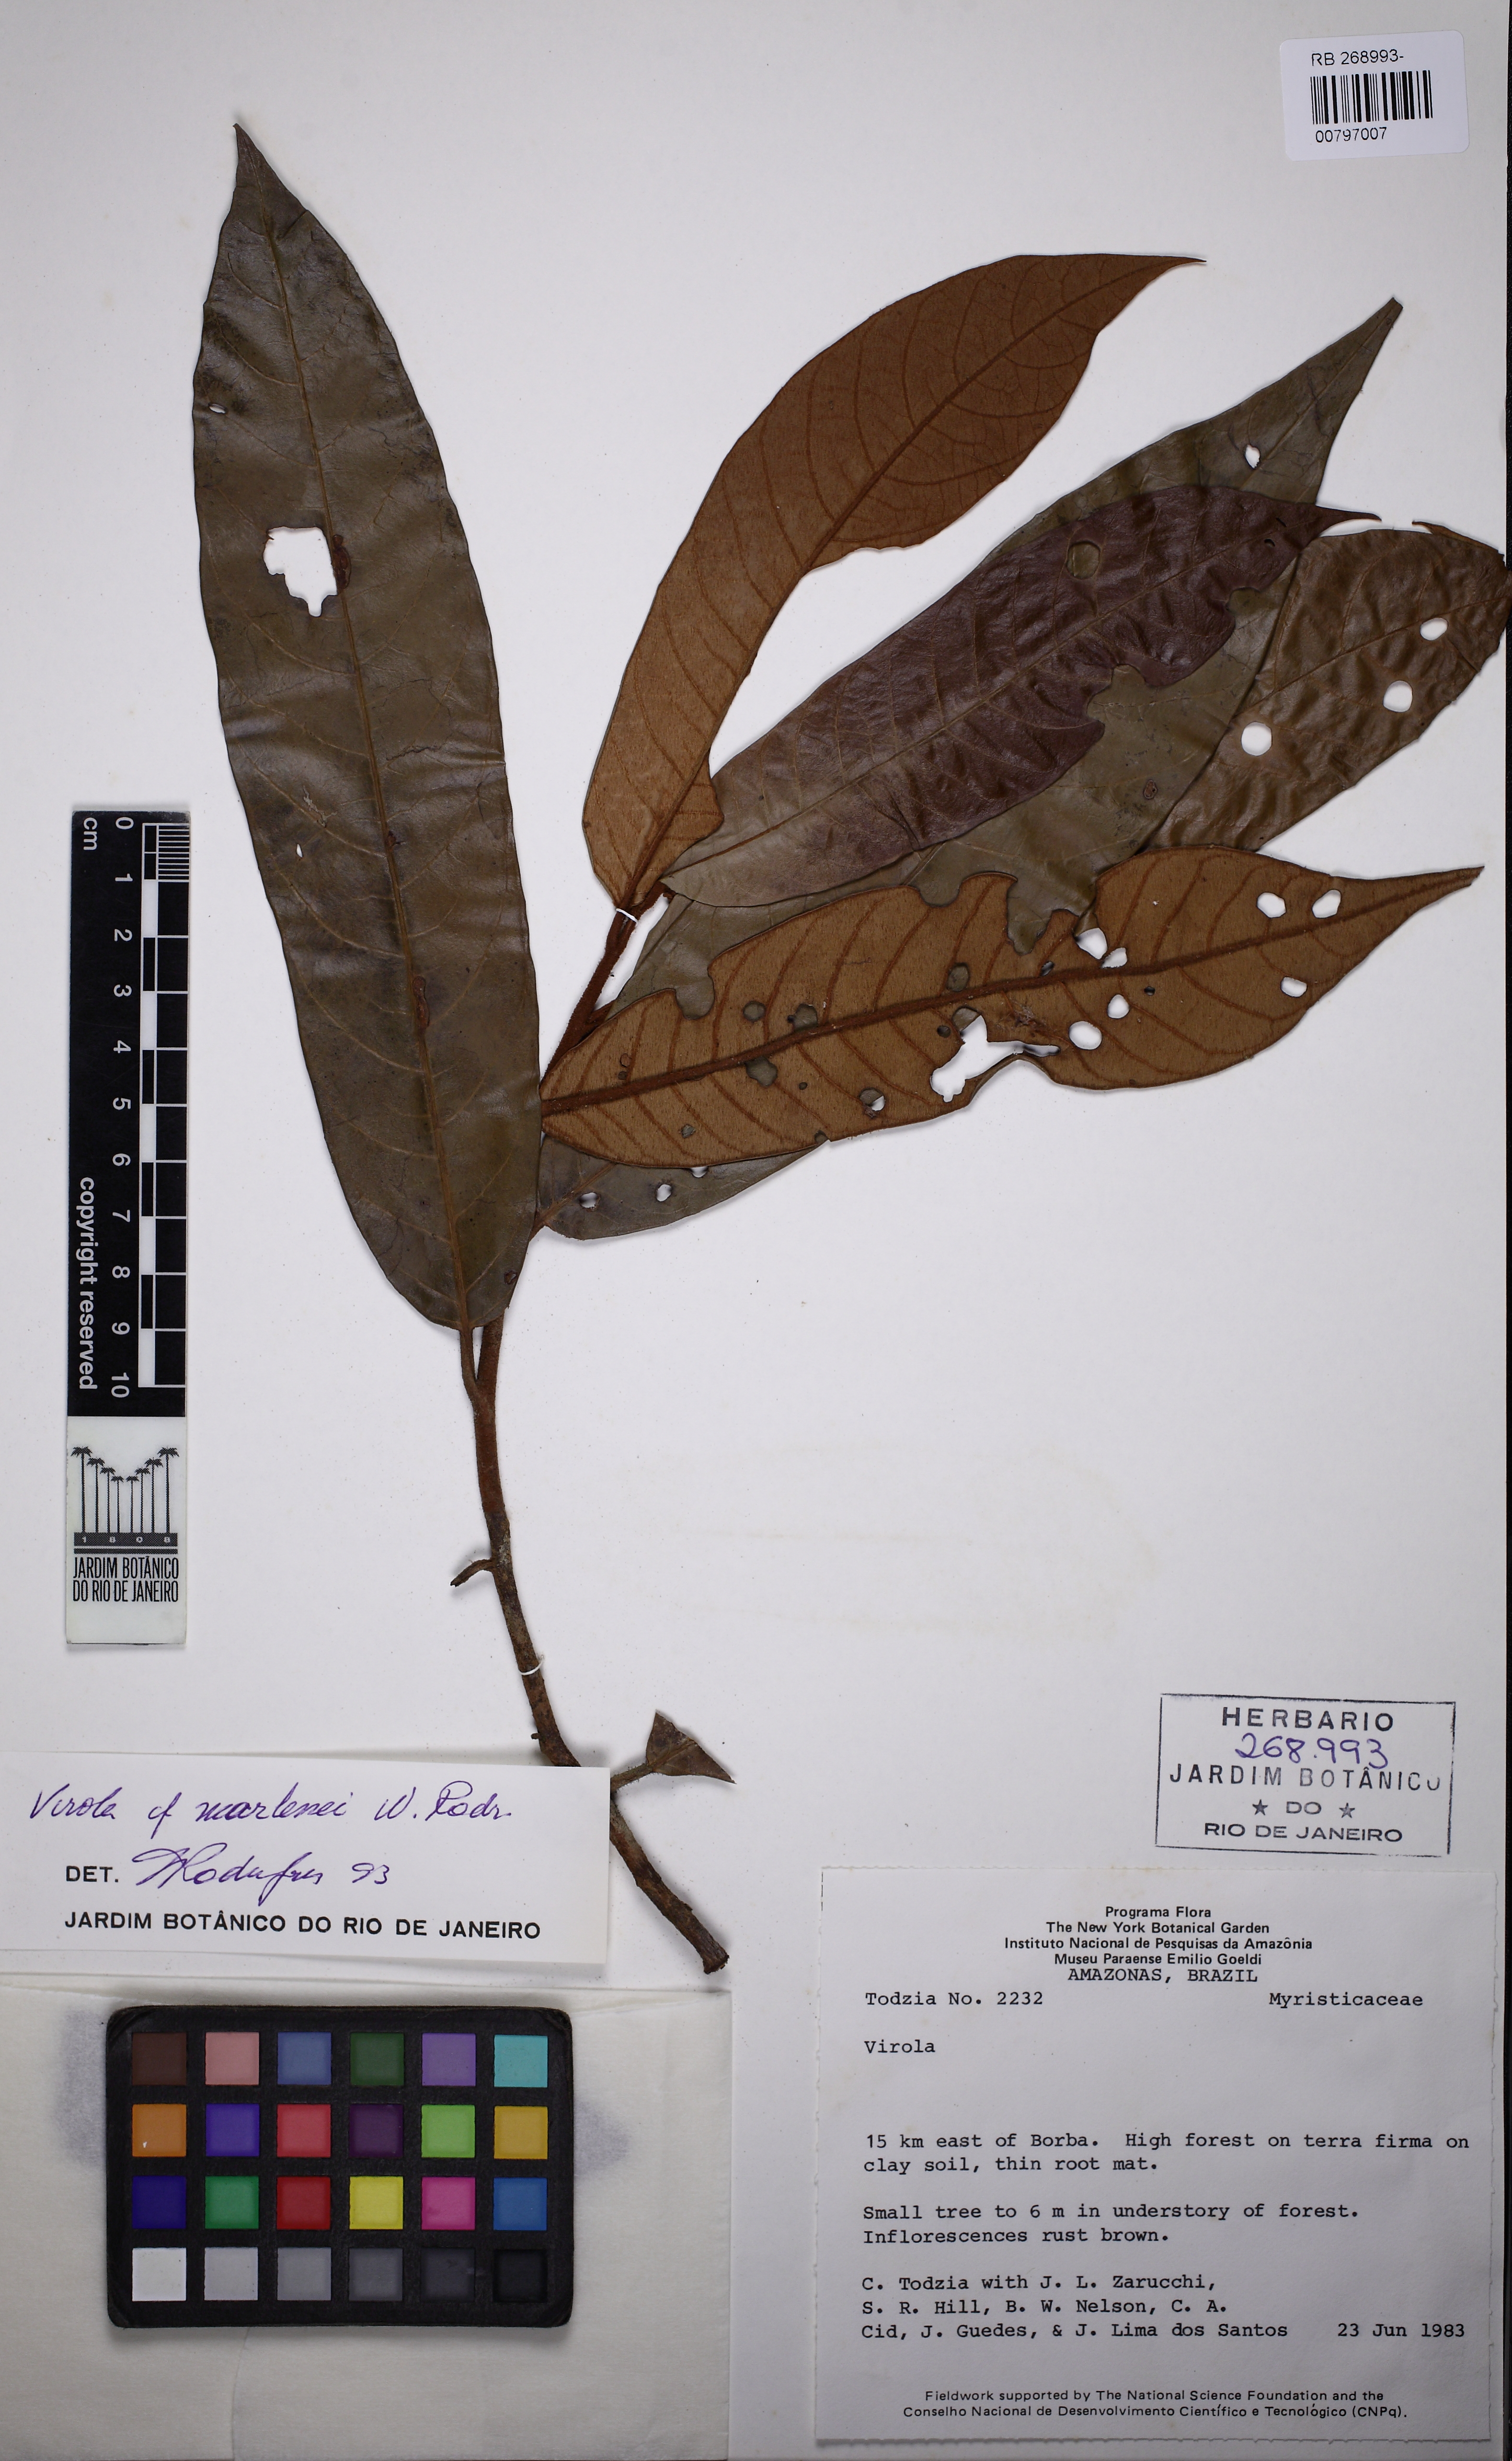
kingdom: Plantae
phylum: Tracheophyta
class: Magnoliopsida
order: Magnoliales
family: Myristicaceae
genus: Virola
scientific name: Virola marleneae
